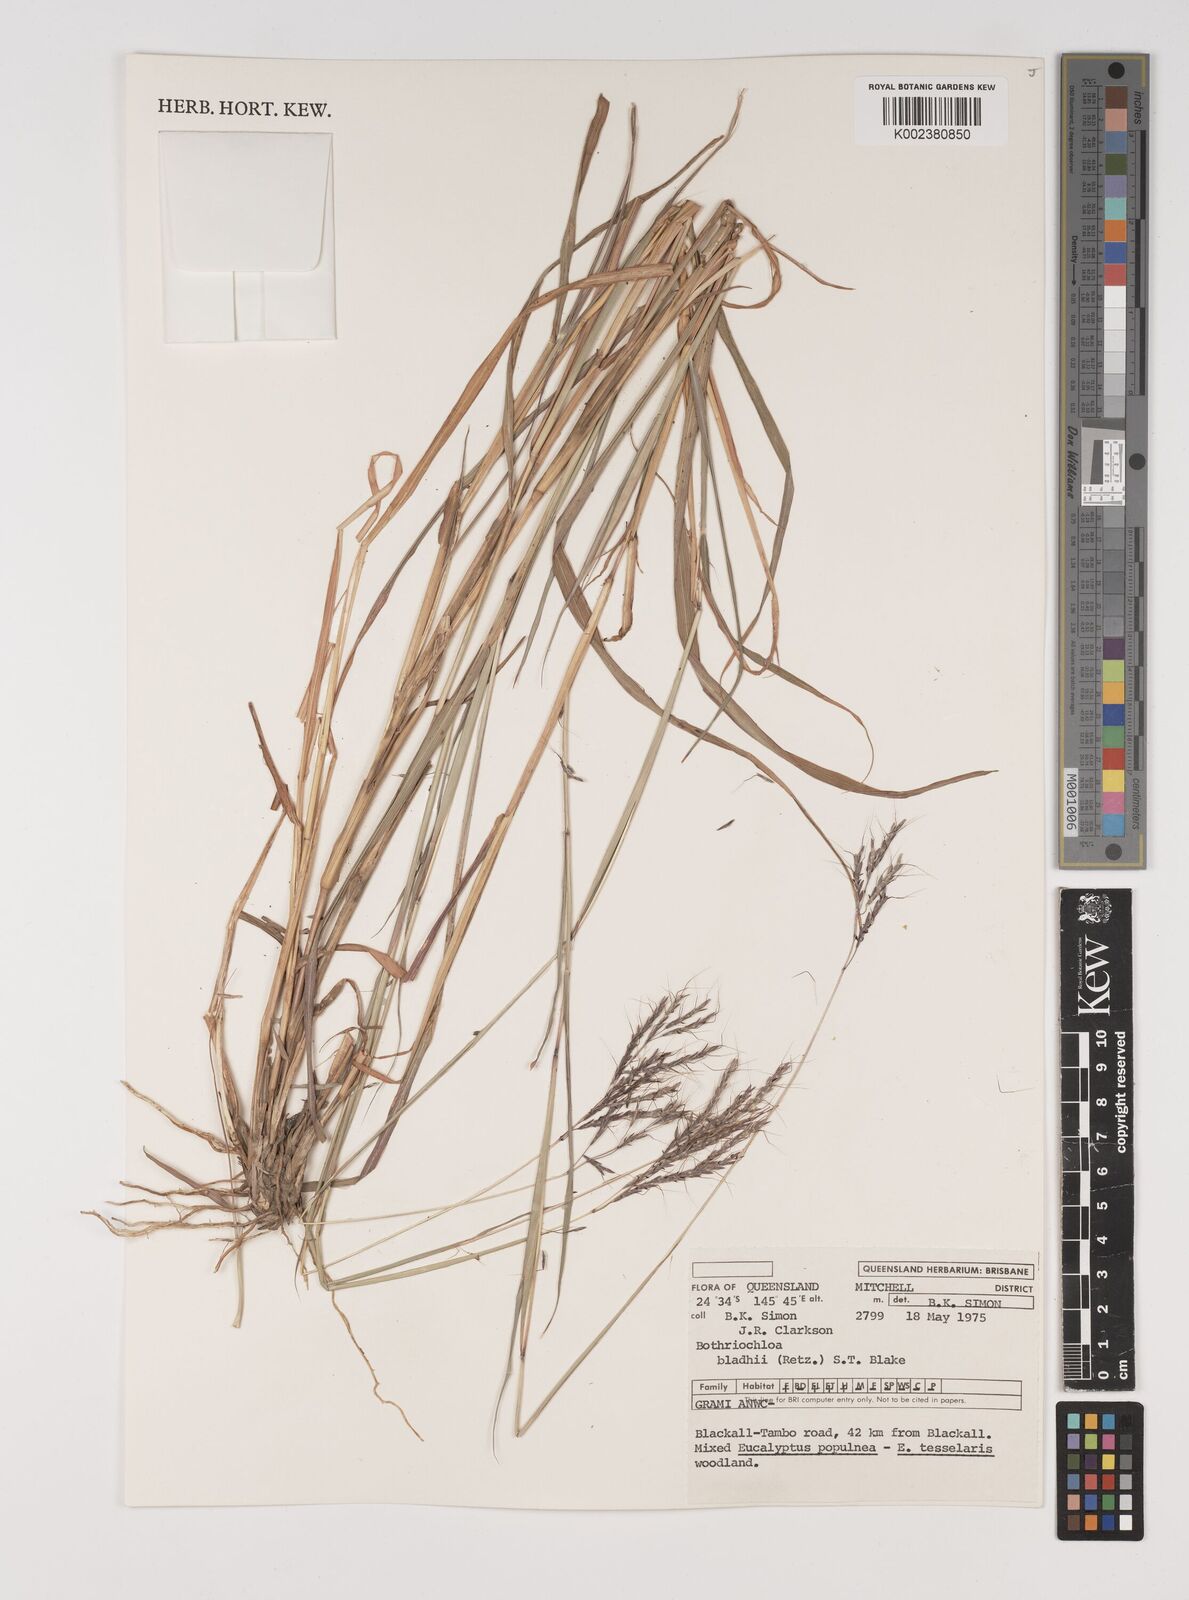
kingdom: Plantae
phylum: Tracheophyta
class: Liliopsida
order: Poales
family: Poaceae
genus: Bothriochloa
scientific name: Bothriochloa bladhii
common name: Caucasian bluestem
